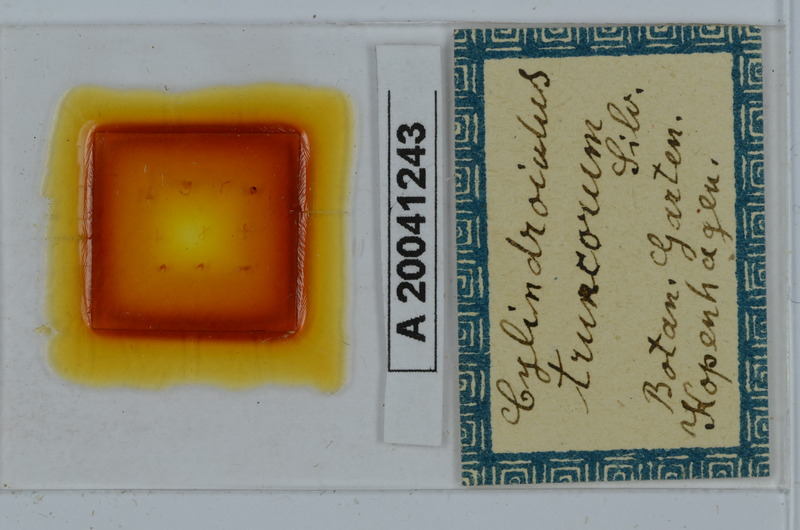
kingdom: Animalia
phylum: Arthropoda
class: Diplopoda
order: Julida
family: Julidae
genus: Cylindroiulus
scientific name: Cylindroiulus truncorum
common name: Millipede
